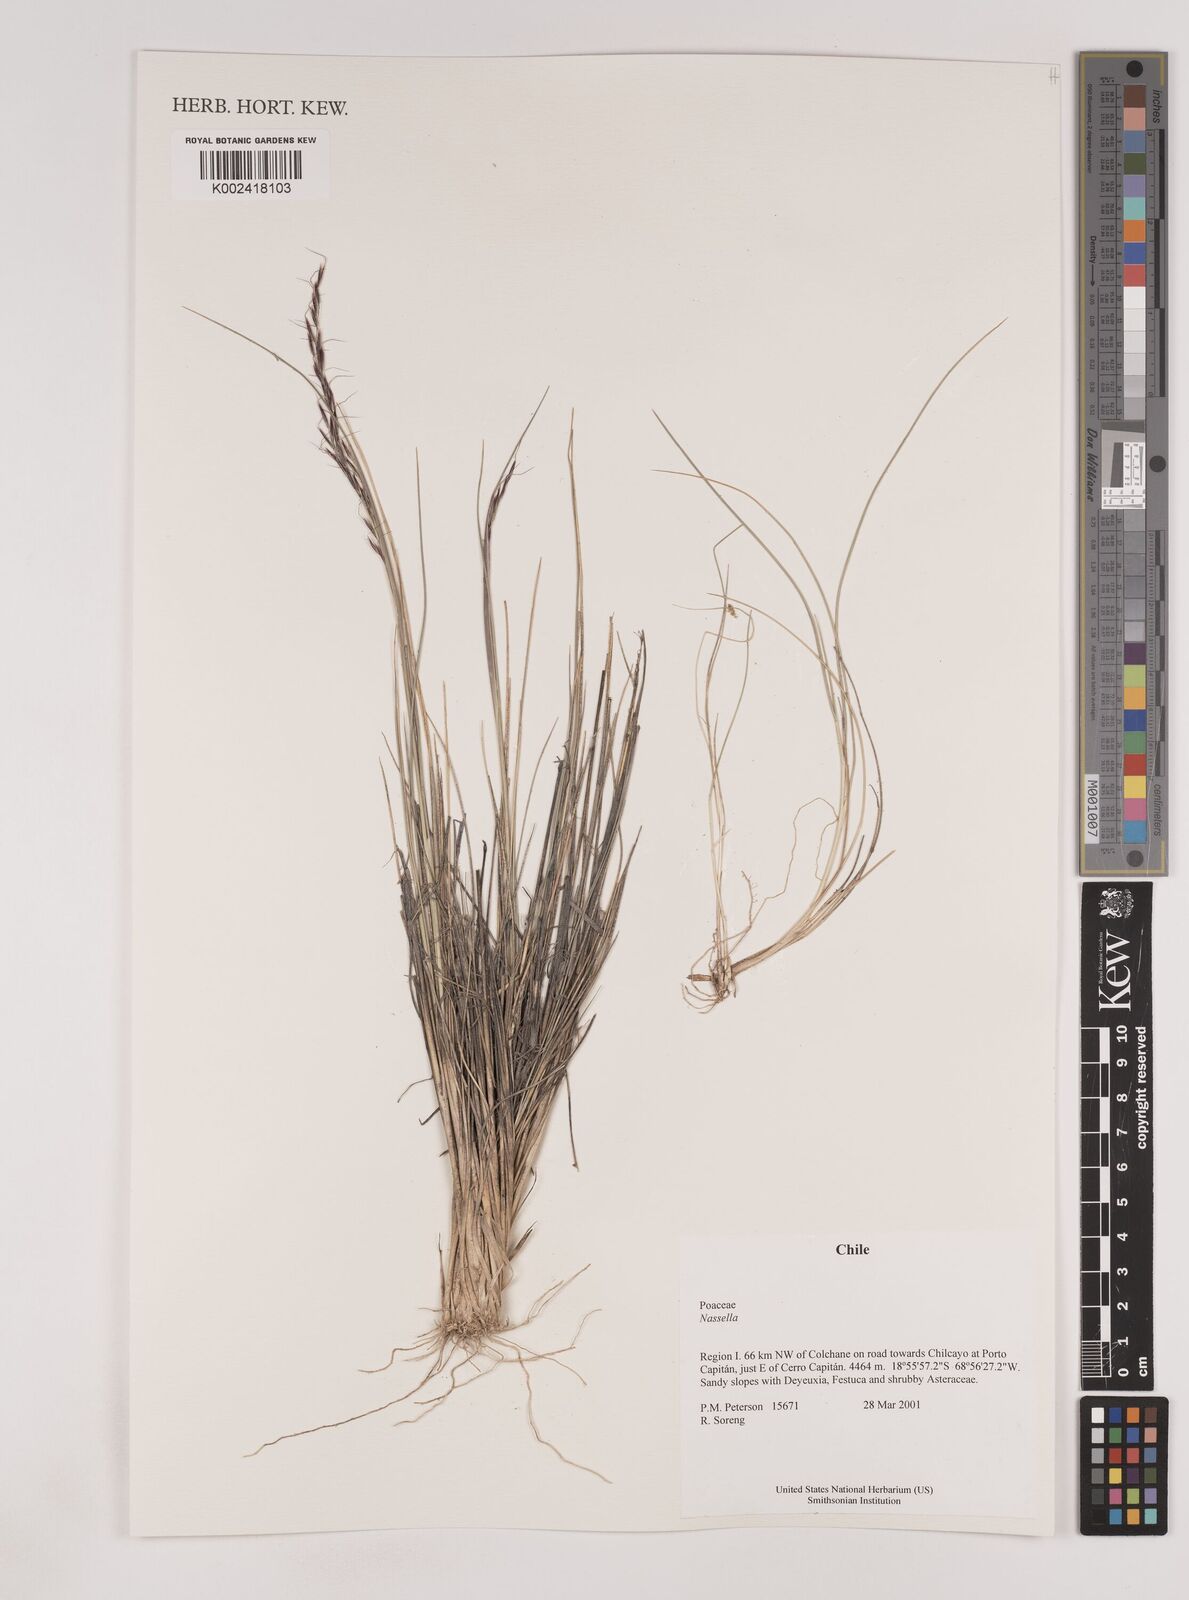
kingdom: Plantae
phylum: Tracheophyta
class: Liliopsida
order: Poales
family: Poaceae
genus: Nassella
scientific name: Nassella
